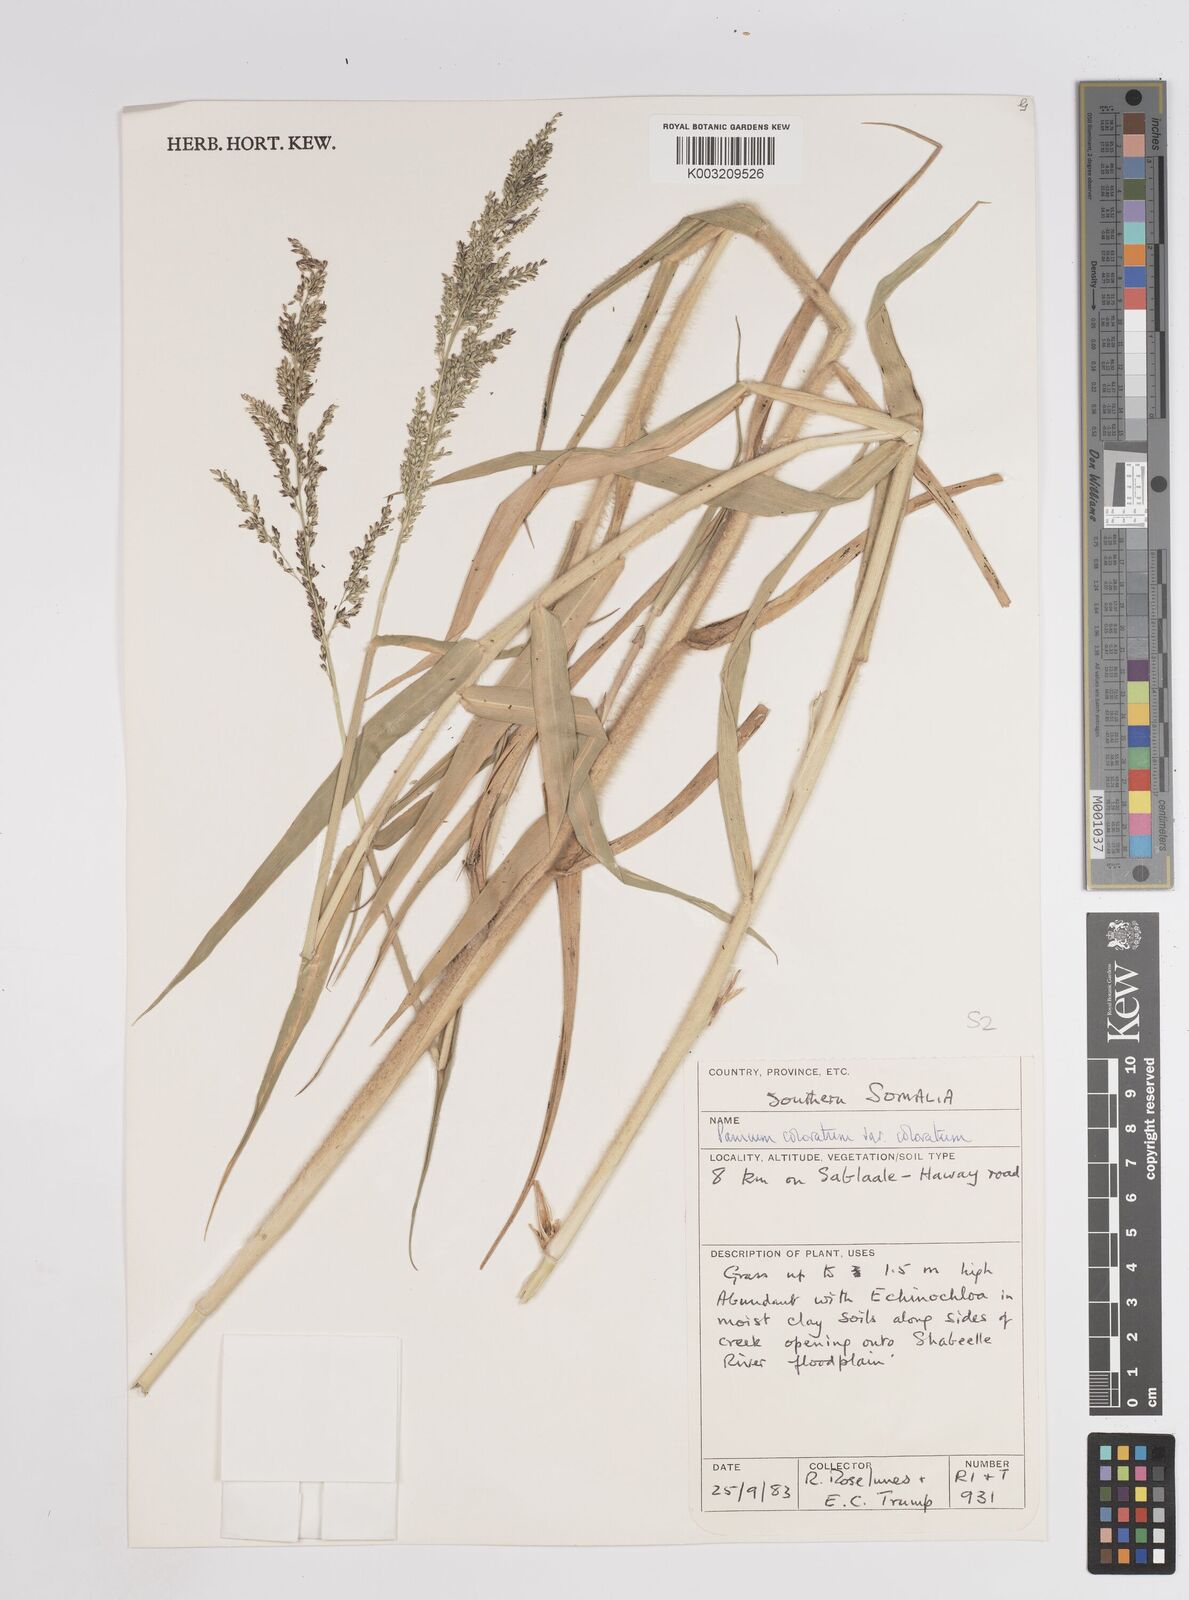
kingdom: Plantae
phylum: Tracheophyta
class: Liliopsida
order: Poales
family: Poaceae
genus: Panicum
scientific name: Panicum coloratum
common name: Kleingrass
